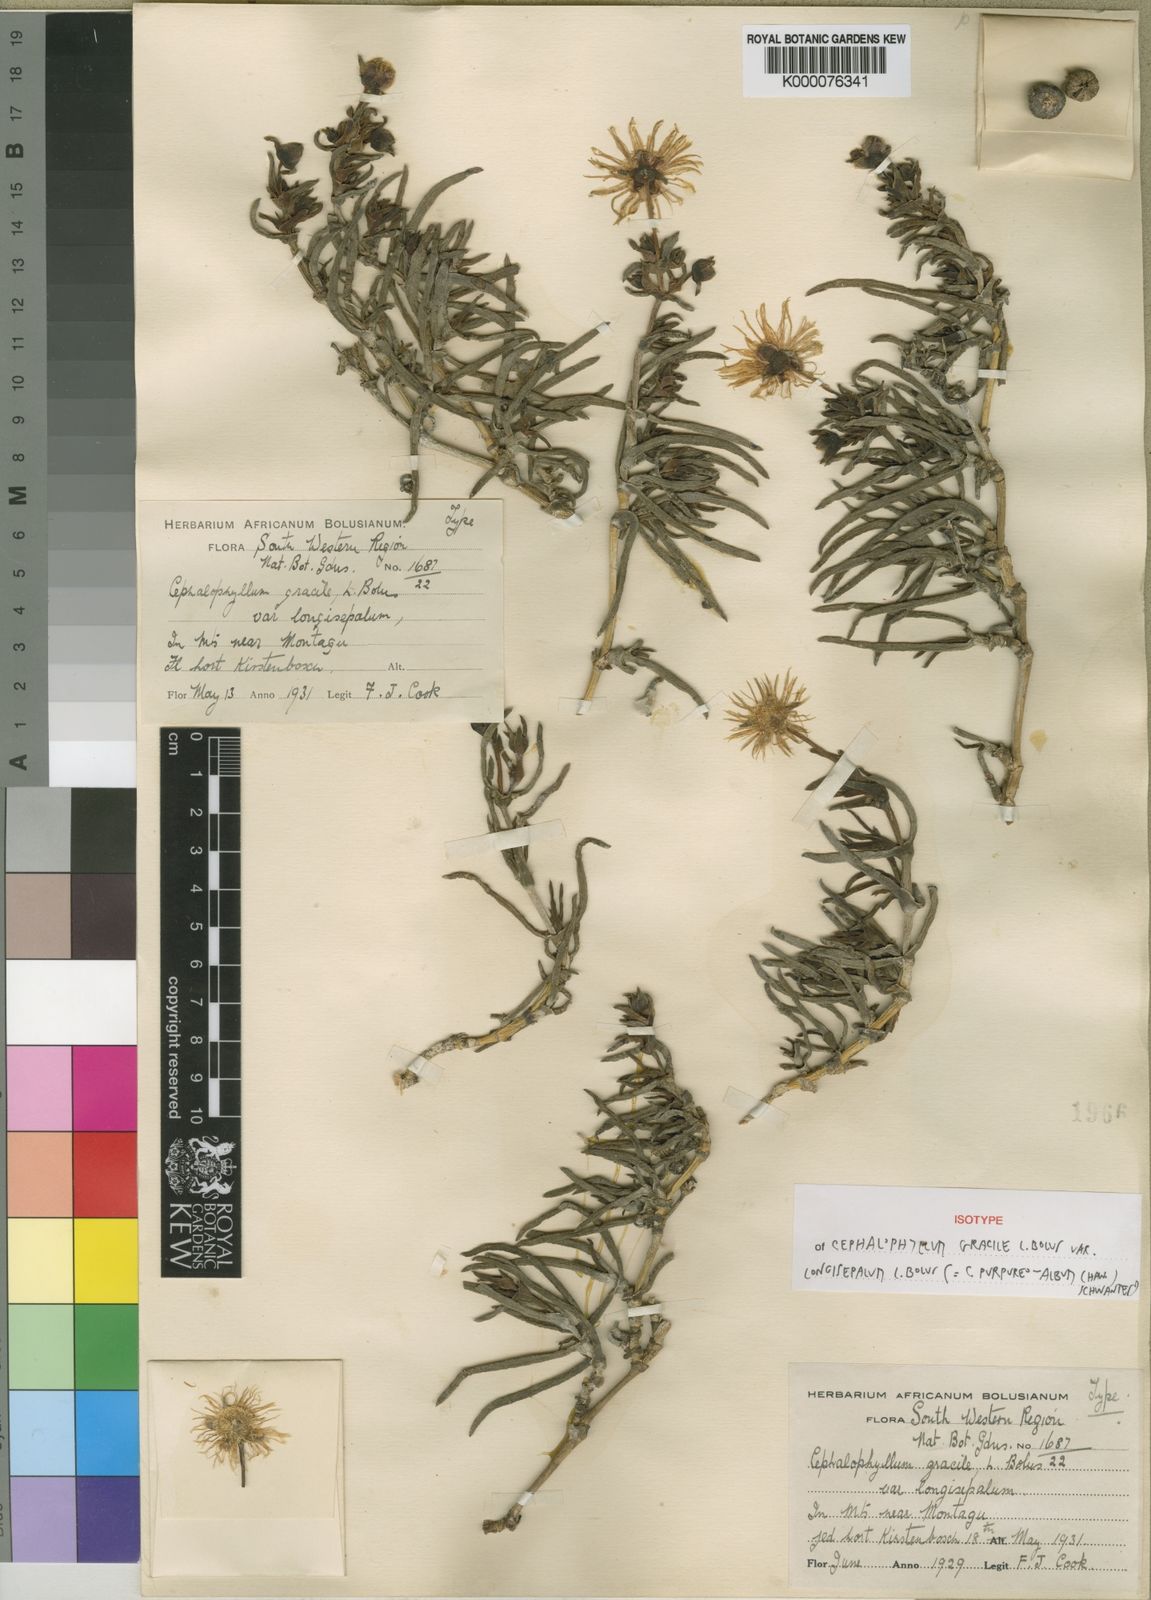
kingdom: Plantae
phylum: Tracheophyta
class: Magnoliopsida
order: Caryophyllales
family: Aizoaceae
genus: Cephalophyllum
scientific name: Cephalophyllum purpureoalbum
